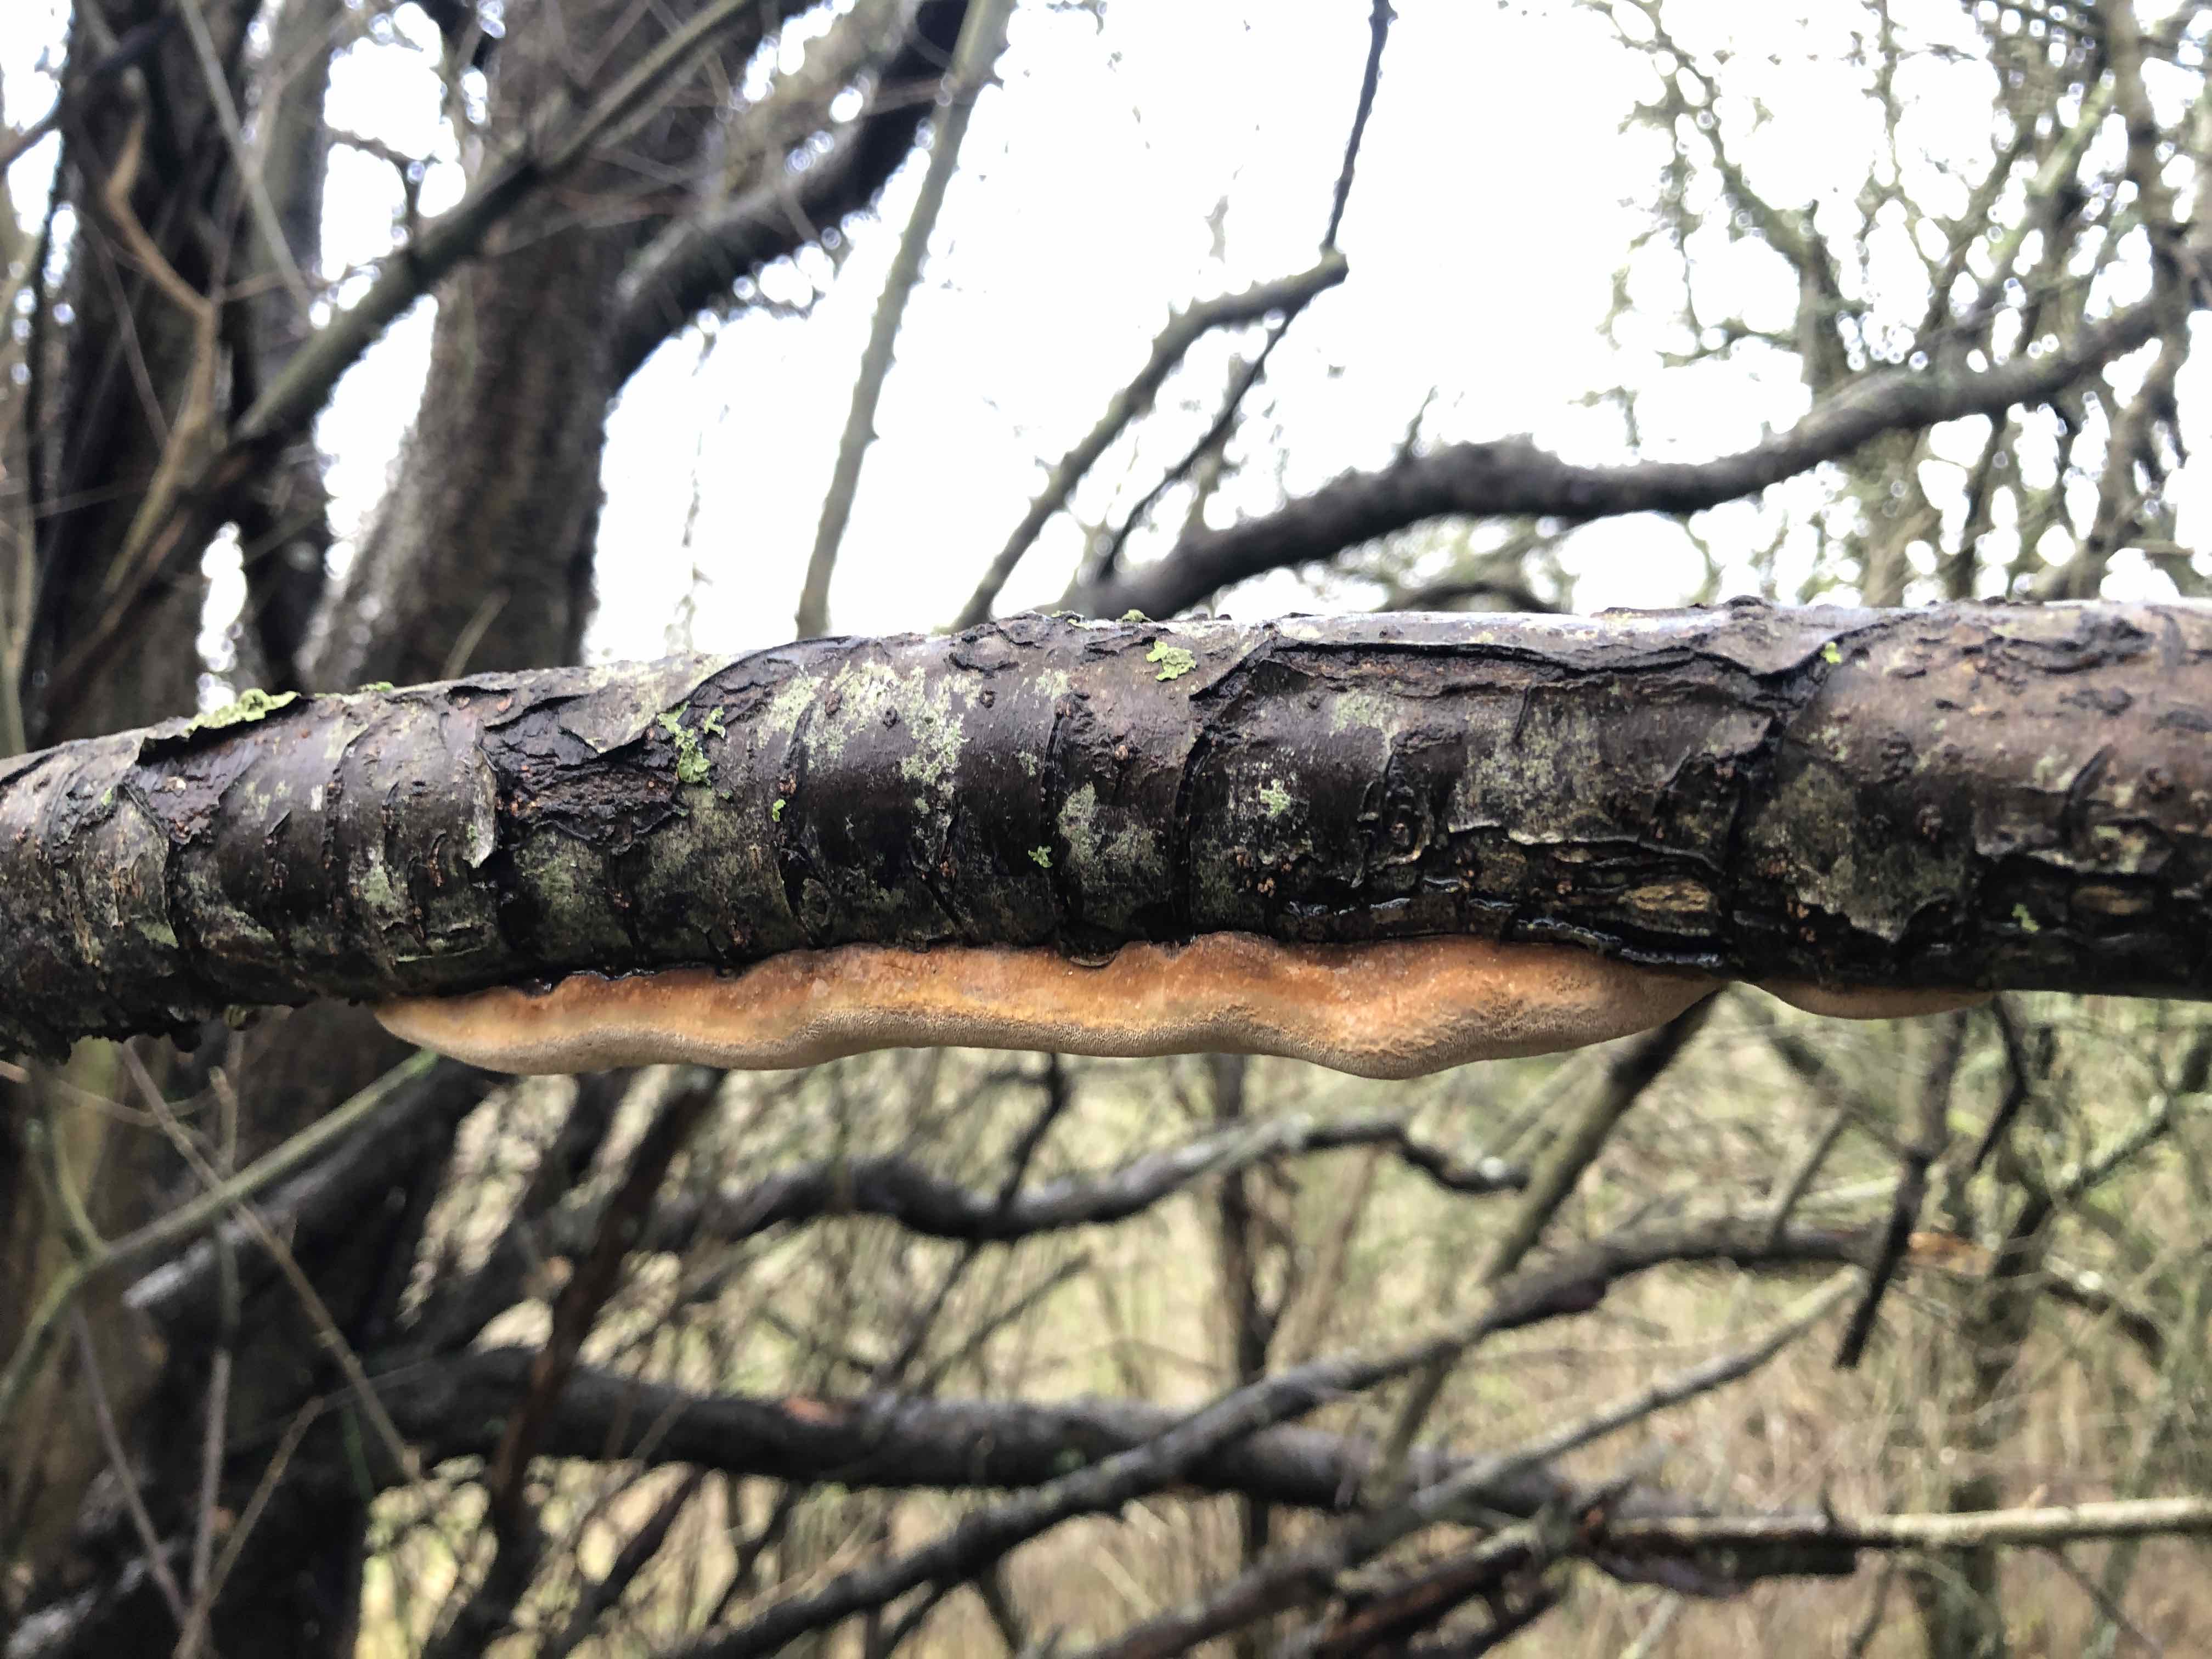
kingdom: Fungi
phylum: Basidiomycota
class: Agaricomycetes
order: Hymenochaetales
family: Hymenochaetaceae
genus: Phellinus
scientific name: Phellinus pomaceus
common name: blomme-ildporesvamp
